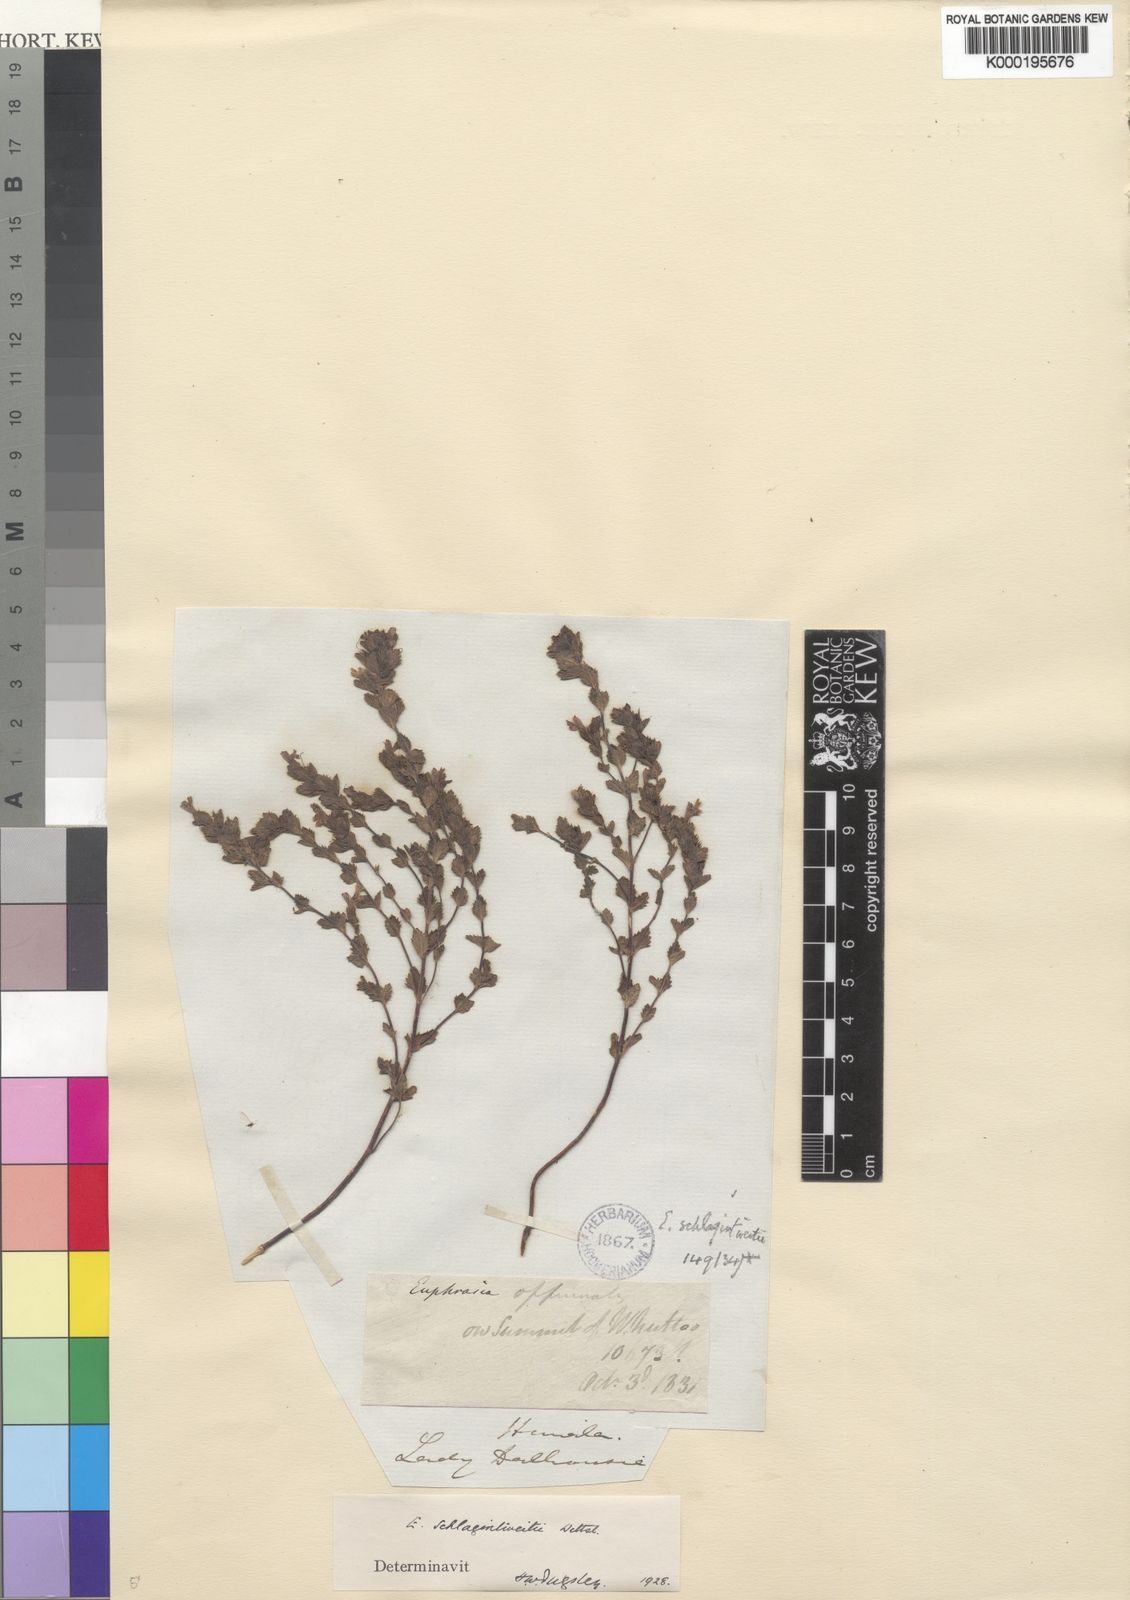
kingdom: Plantae
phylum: Tracheophyta
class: Magnoliopsida
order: Lamiales
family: Orobanchaceae
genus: Euphrasia
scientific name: Euphrasia schlagintweitii
